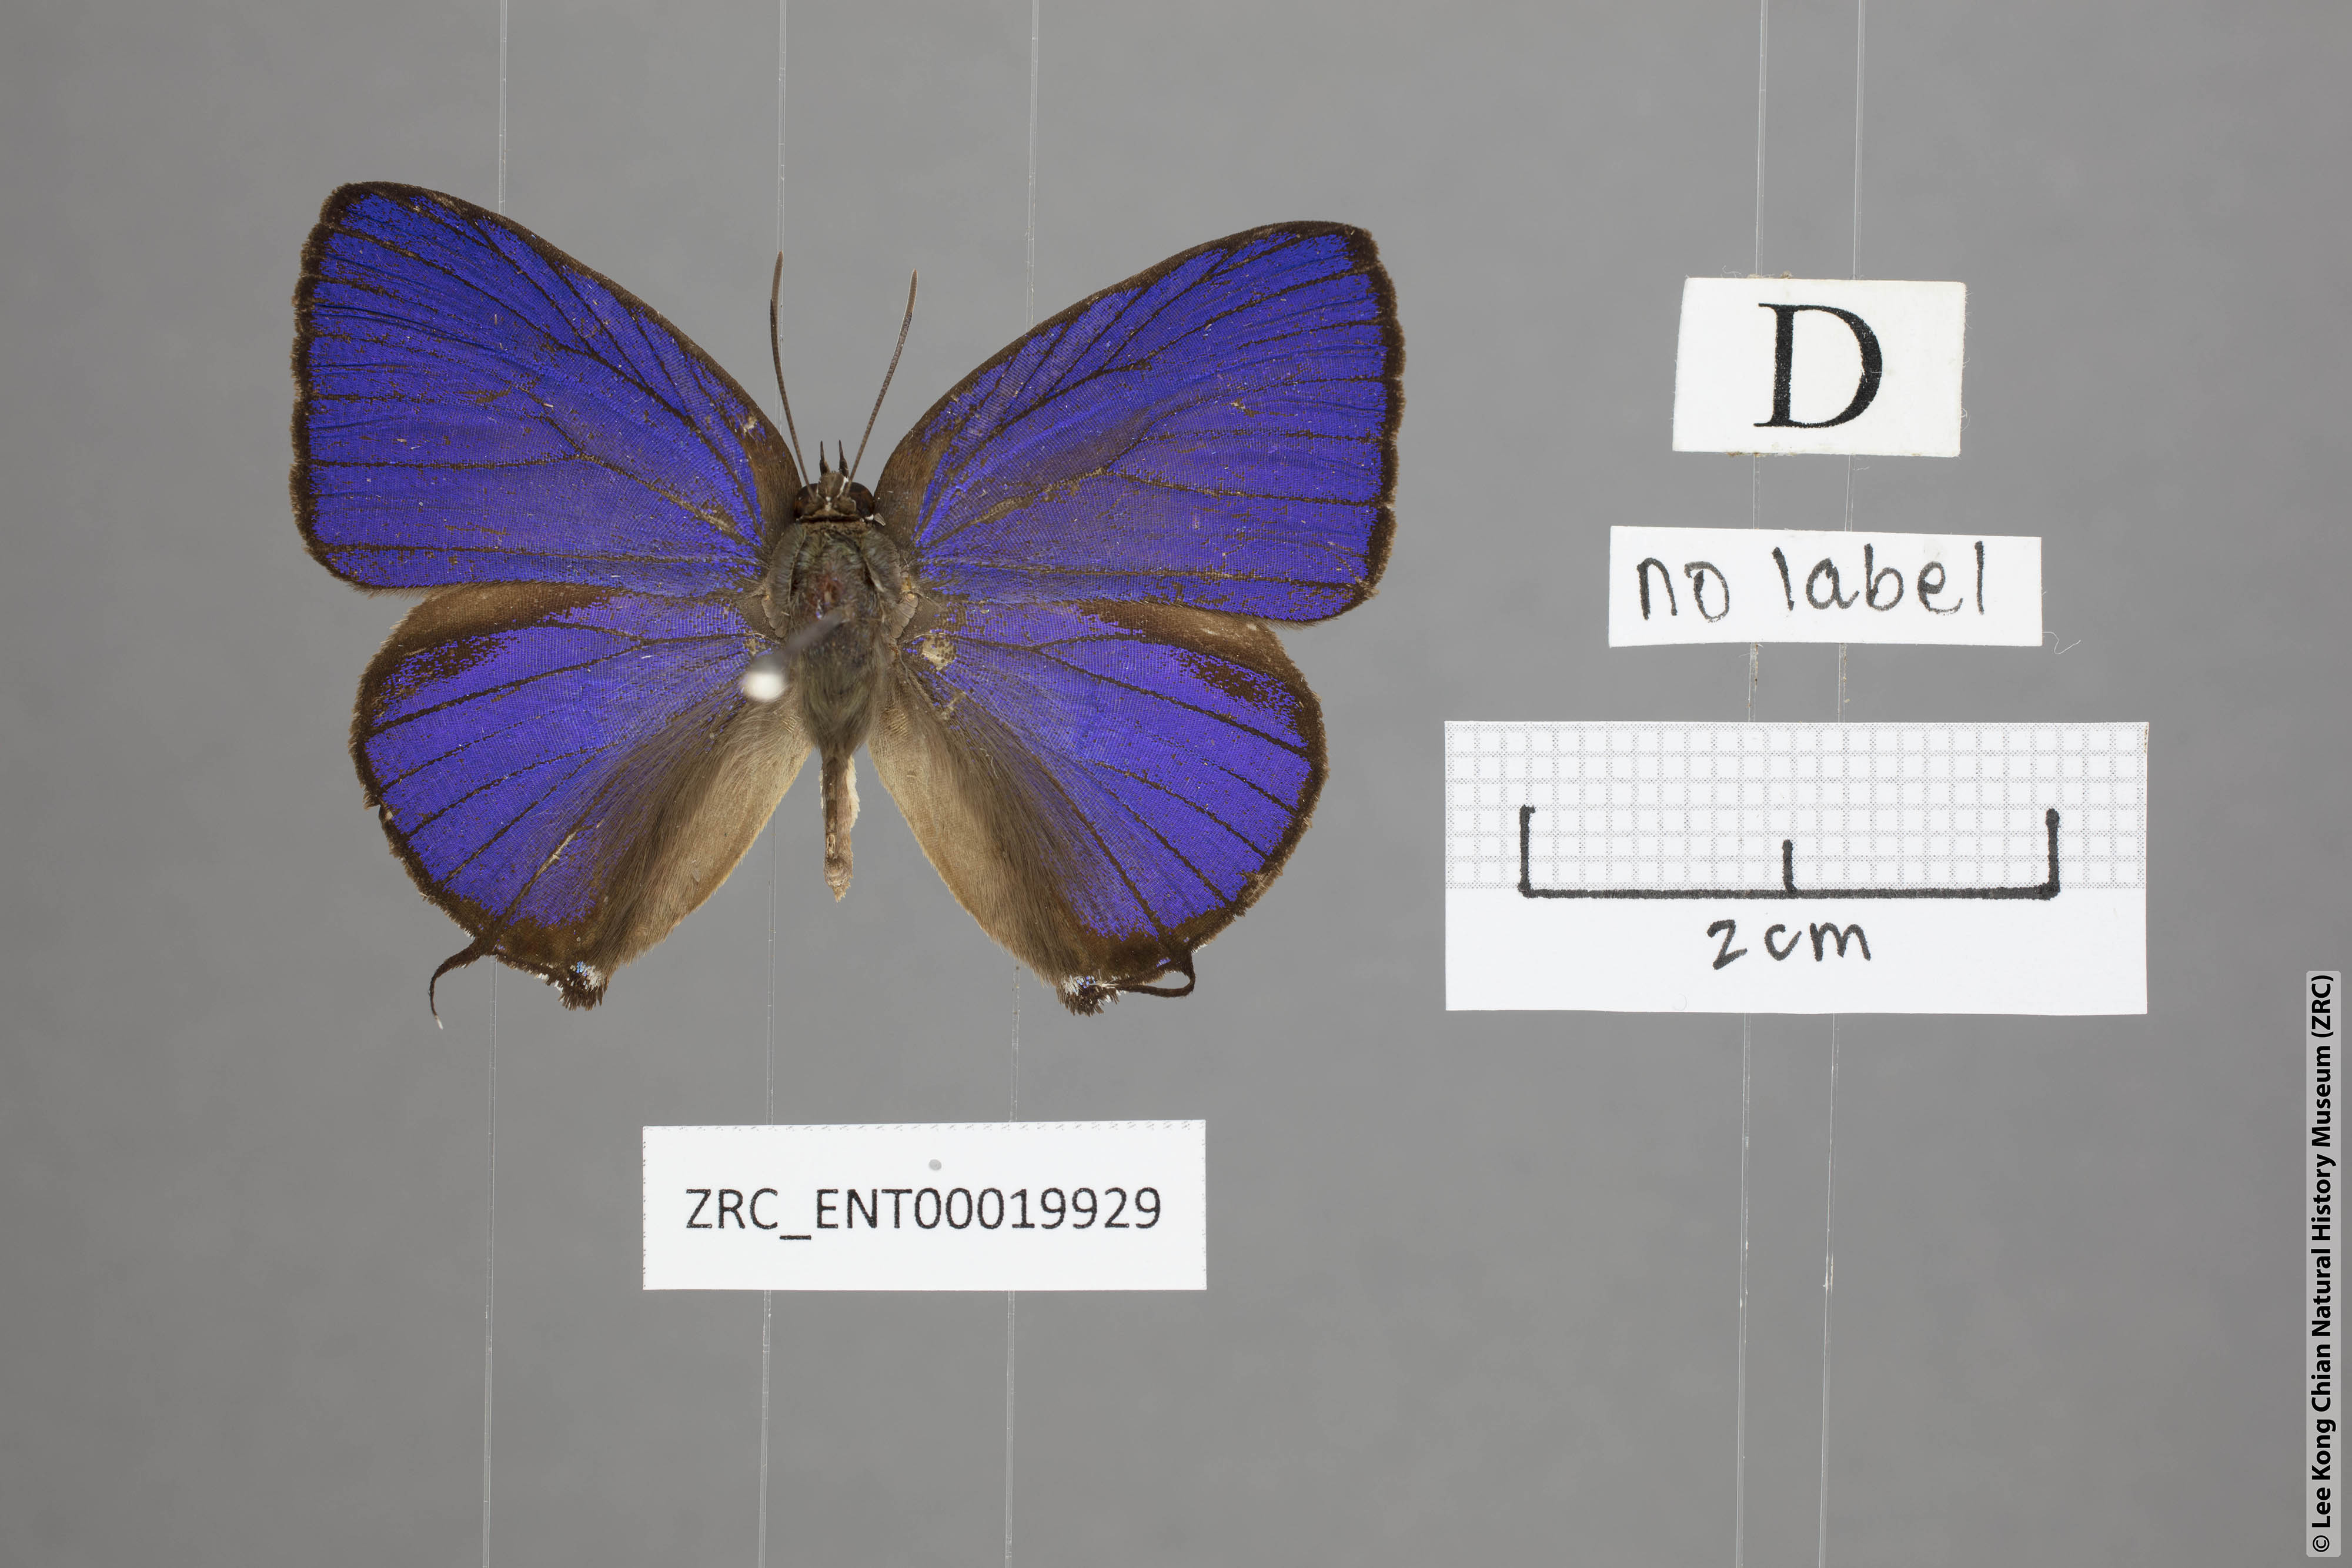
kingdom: Animalia
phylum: Arthropoda
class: Insecta
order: Lepidoptera
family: Lycaenidae
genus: Arhopala
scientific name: Arhopala zambra
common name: Zambra oakblue
